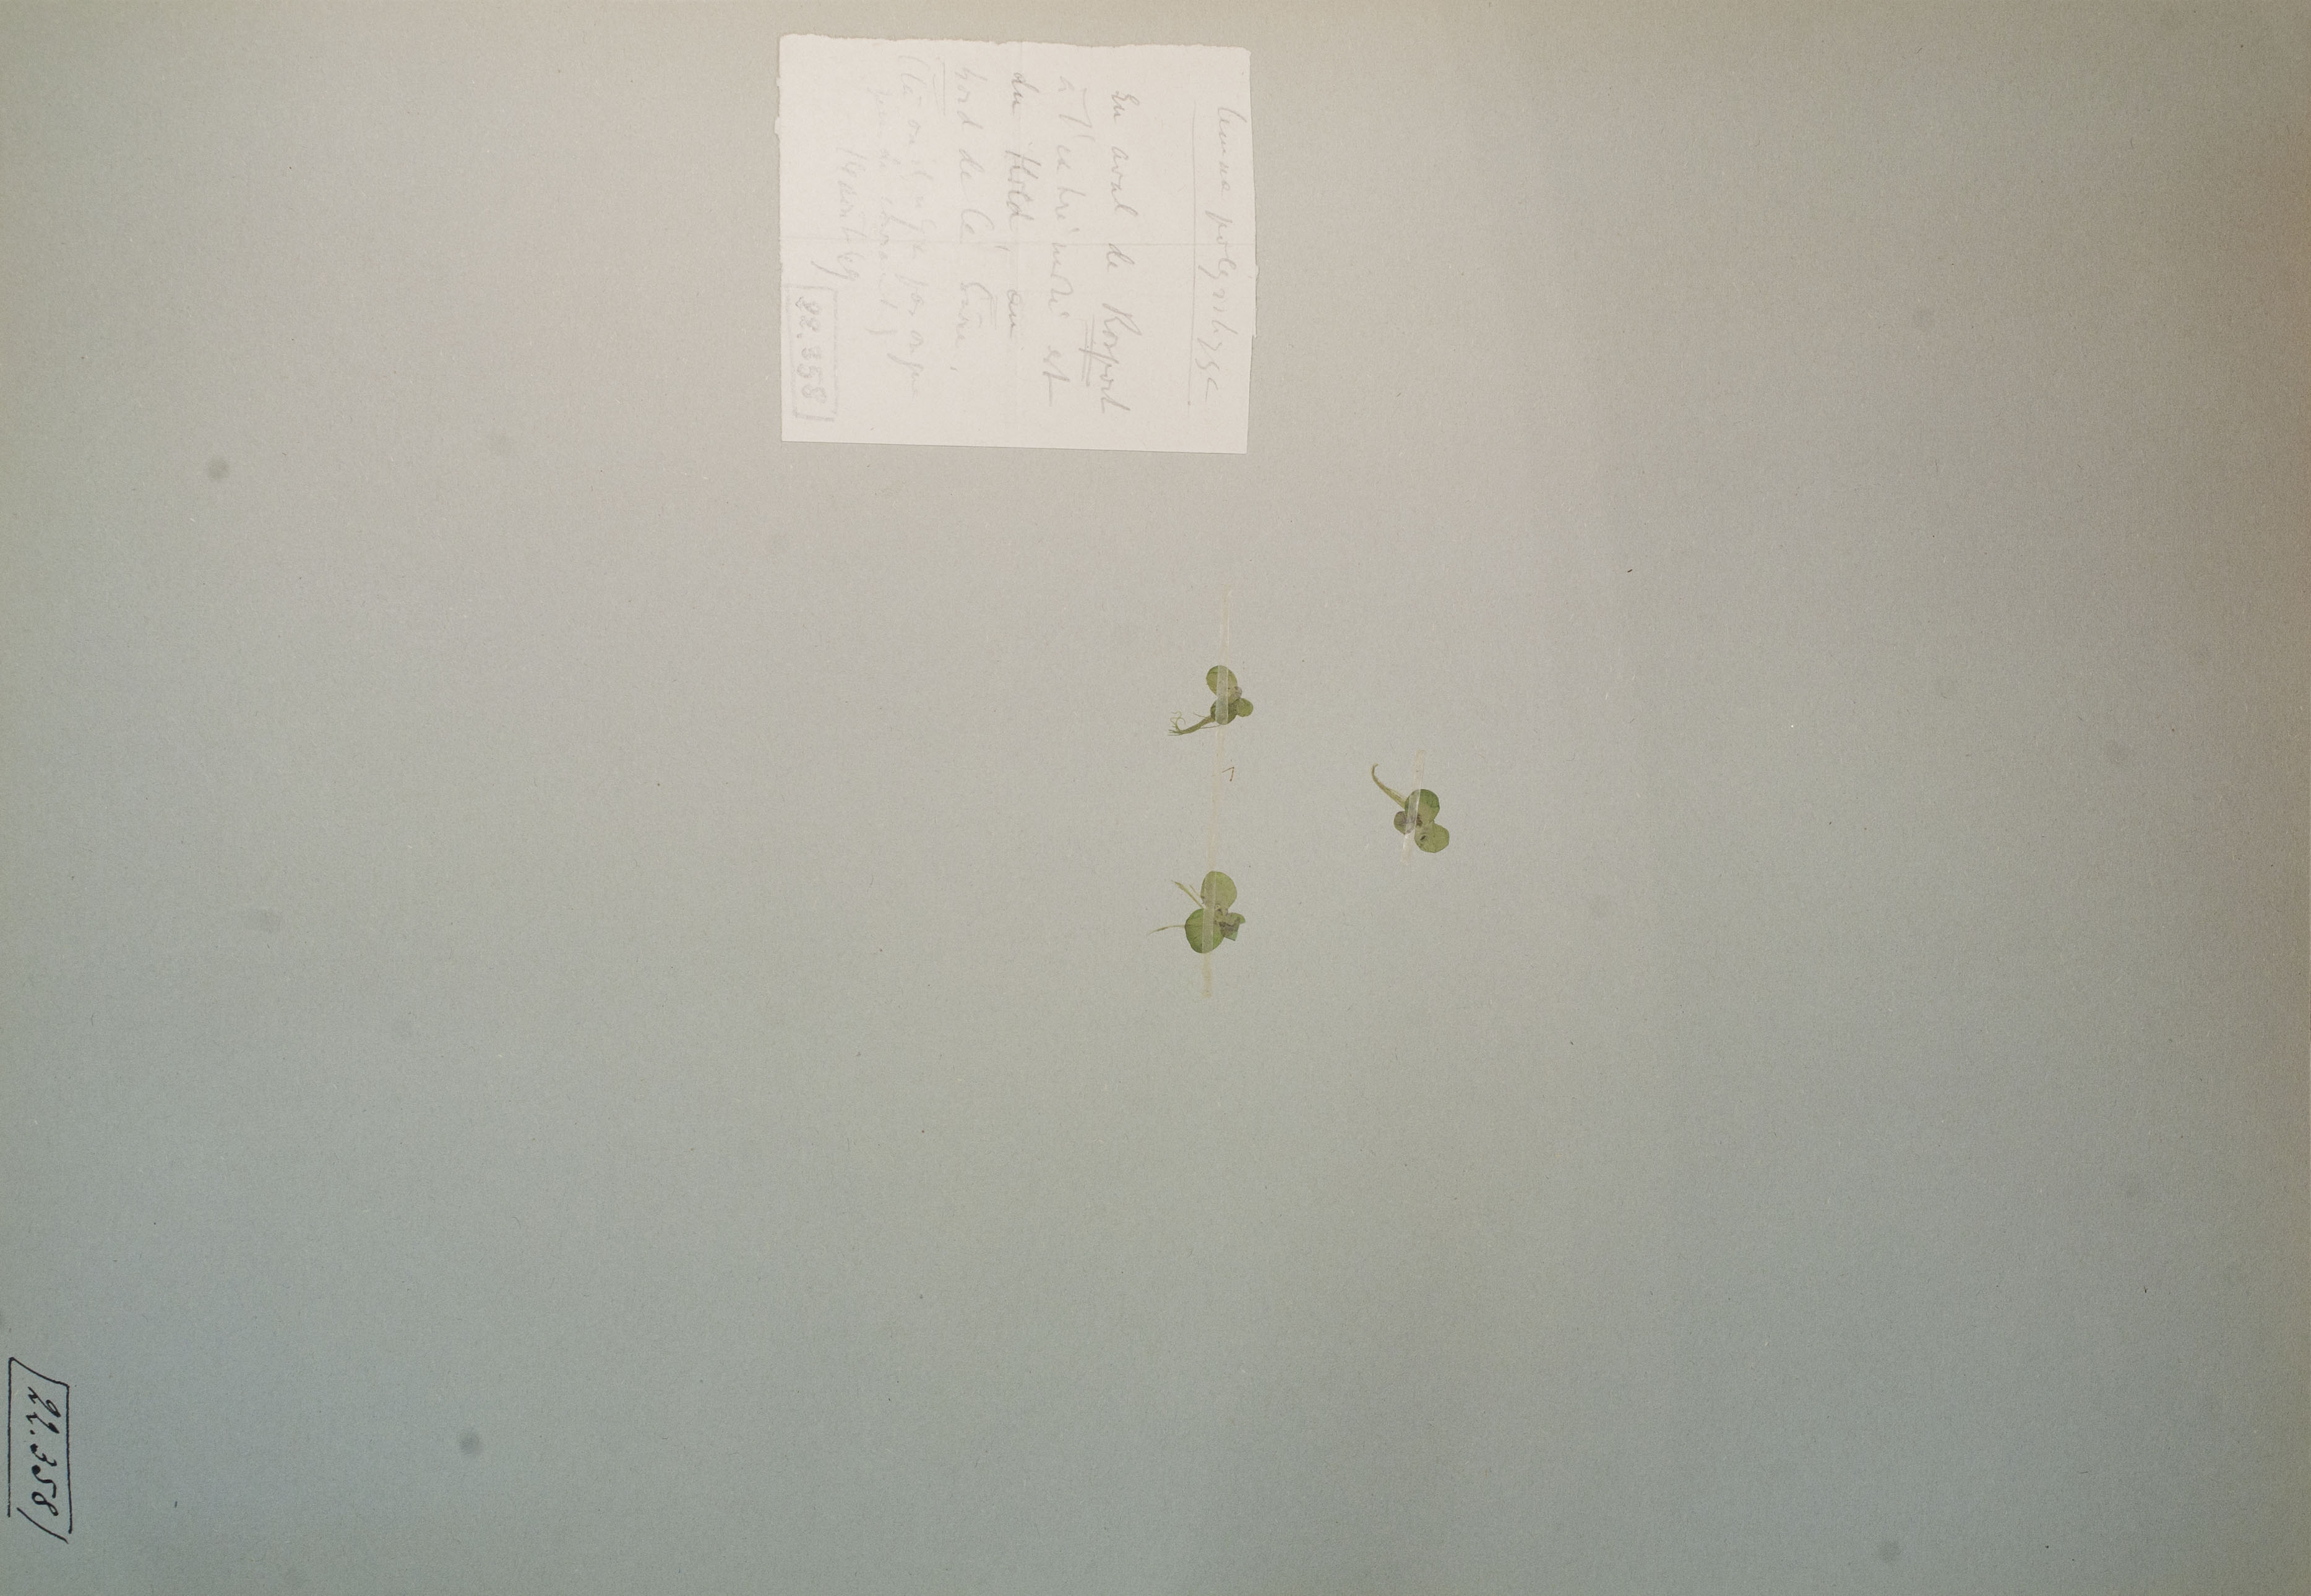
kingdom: Plantae
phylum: Tracheophyta
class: Liliopsida
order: Alismatales
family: Araceae
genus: Spirodela
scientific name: Spirodela polyrhiza
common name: Great duckweed
